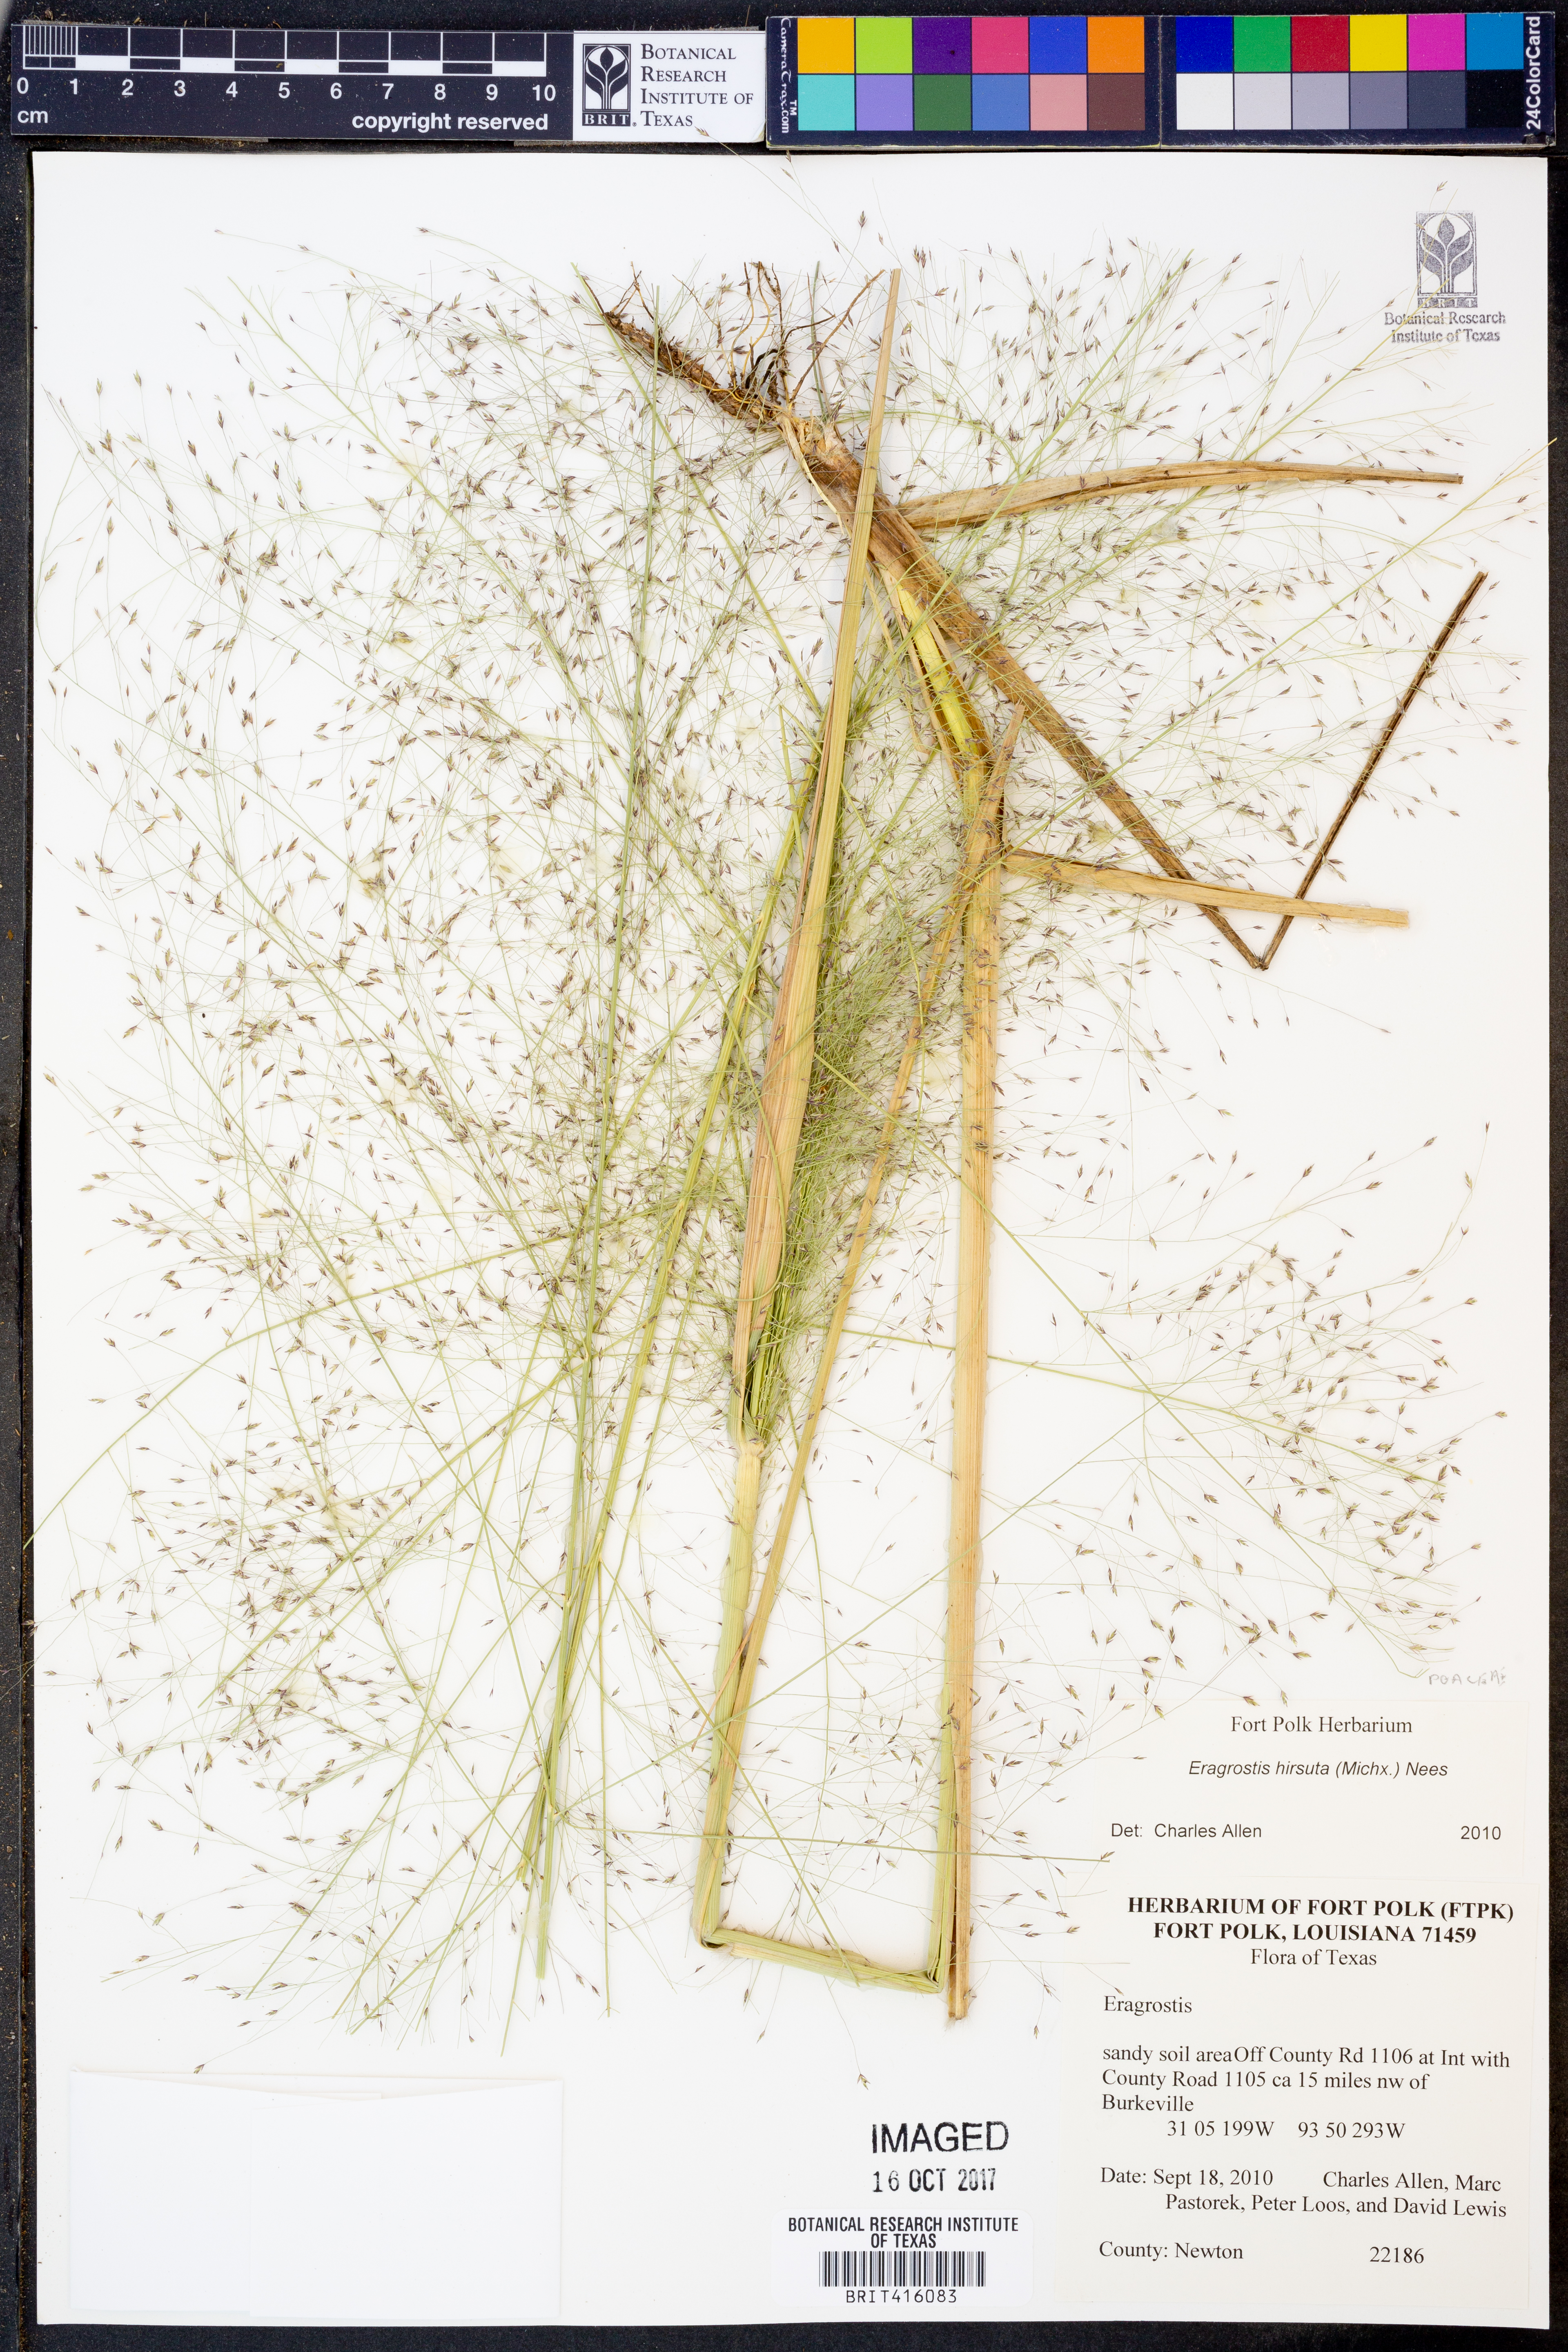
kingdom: Plantae
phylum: Tracheophyta
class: Liliopsida
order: Poales
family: Poaceae
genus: Eragrostis
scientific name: Eragrostis hirsuta
